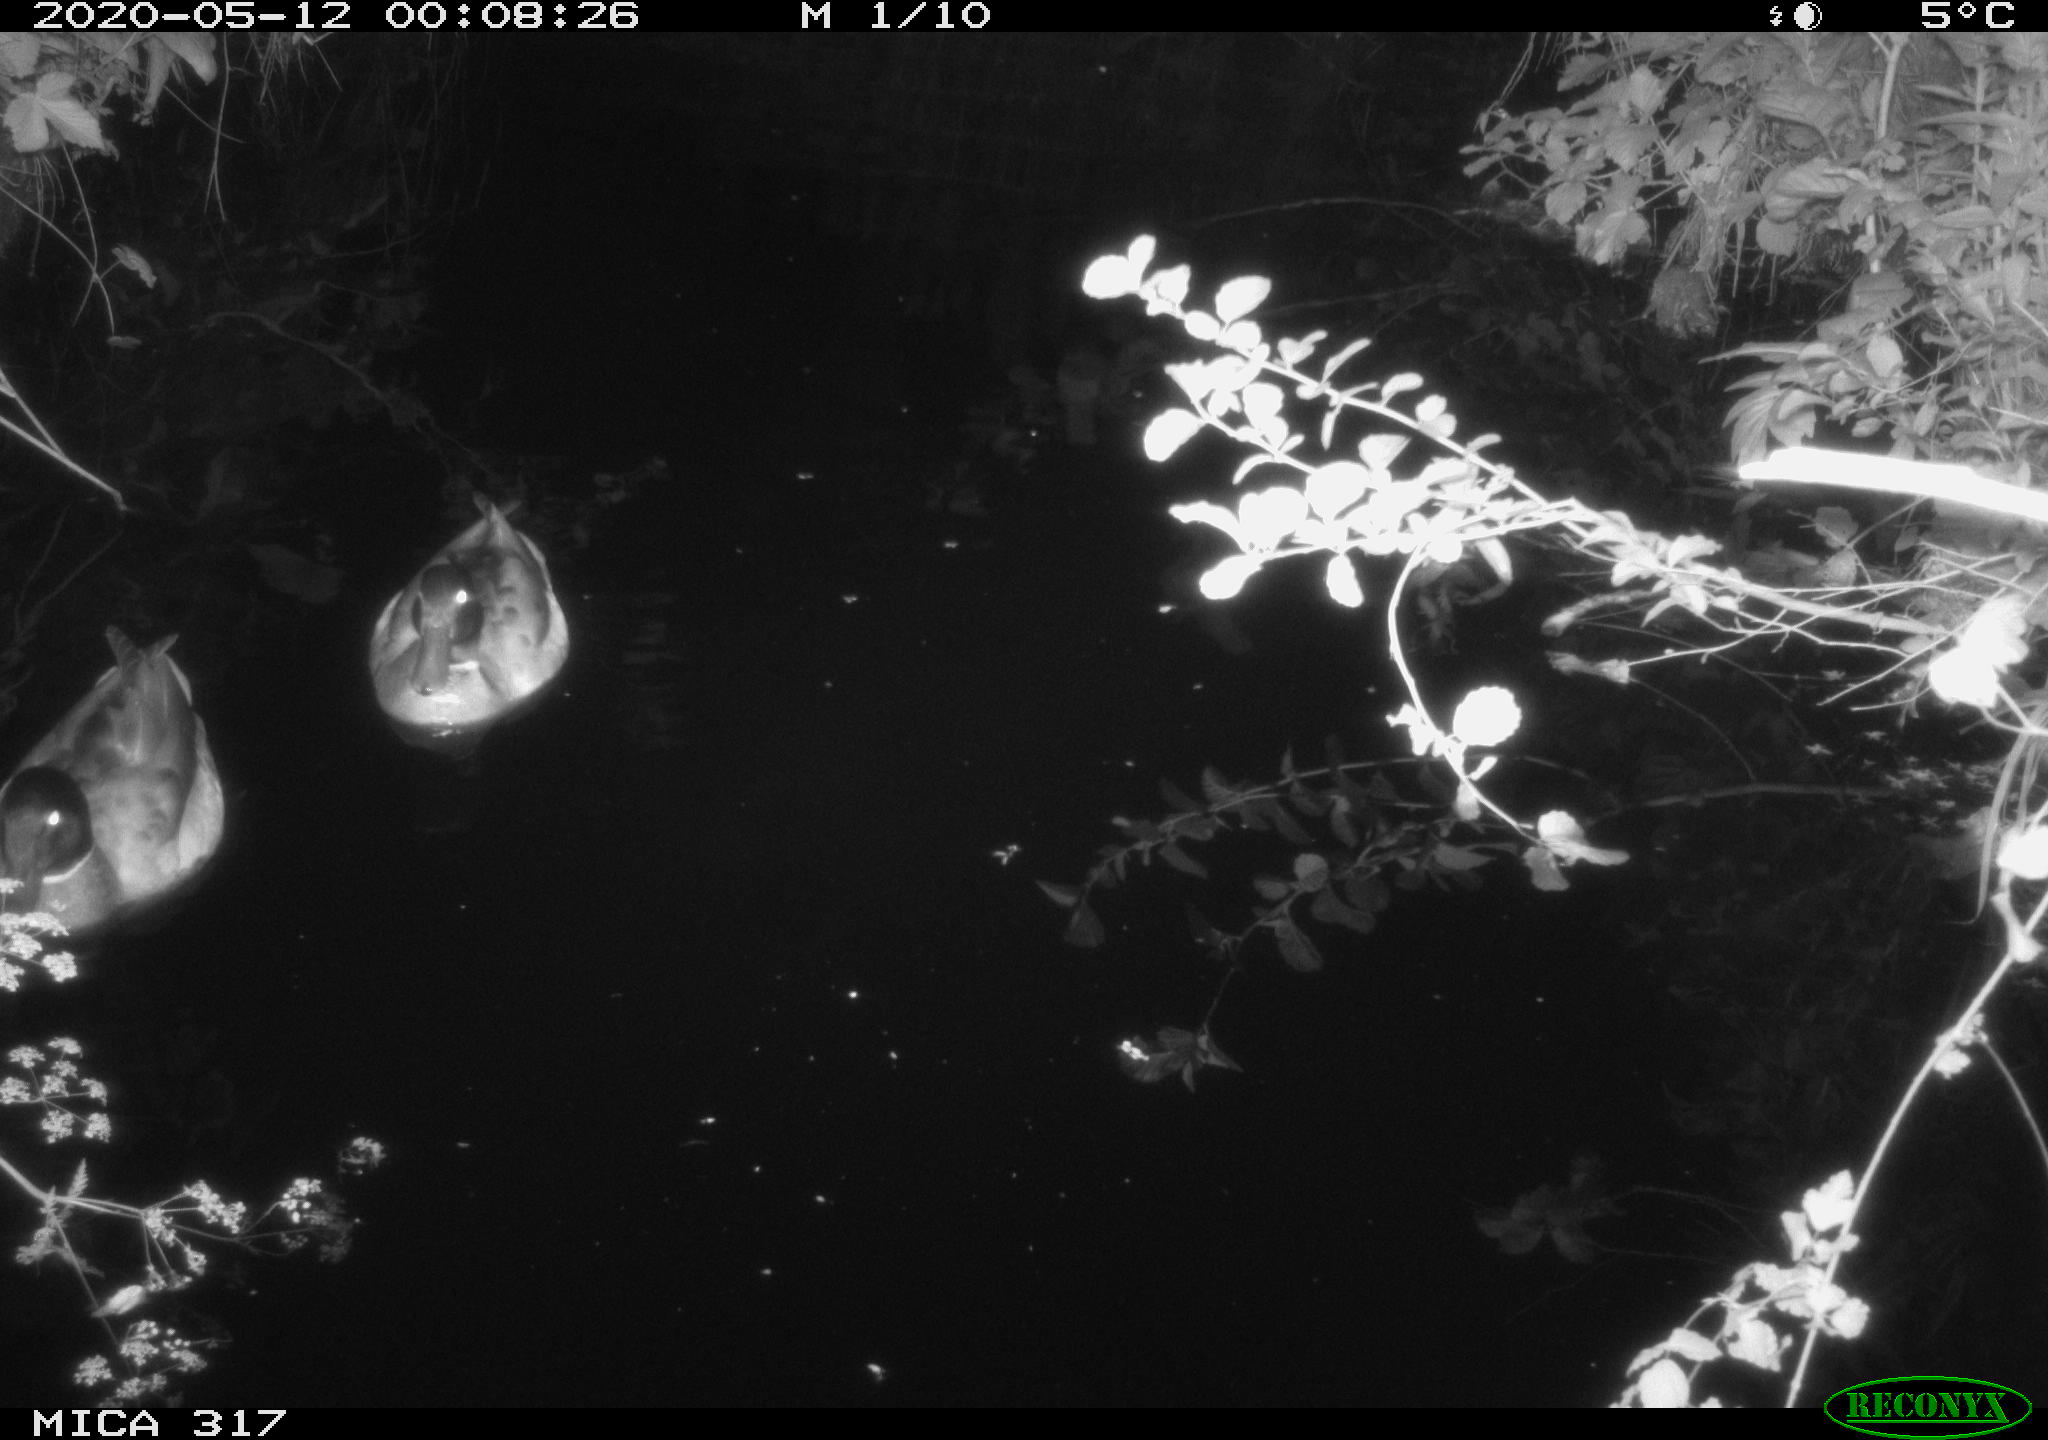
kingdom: Animalia
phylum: Chordata
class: Aves
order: Anseriformes
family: Anatidae
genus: Anas
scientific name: Anas platyrhynchos
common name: Mallard
